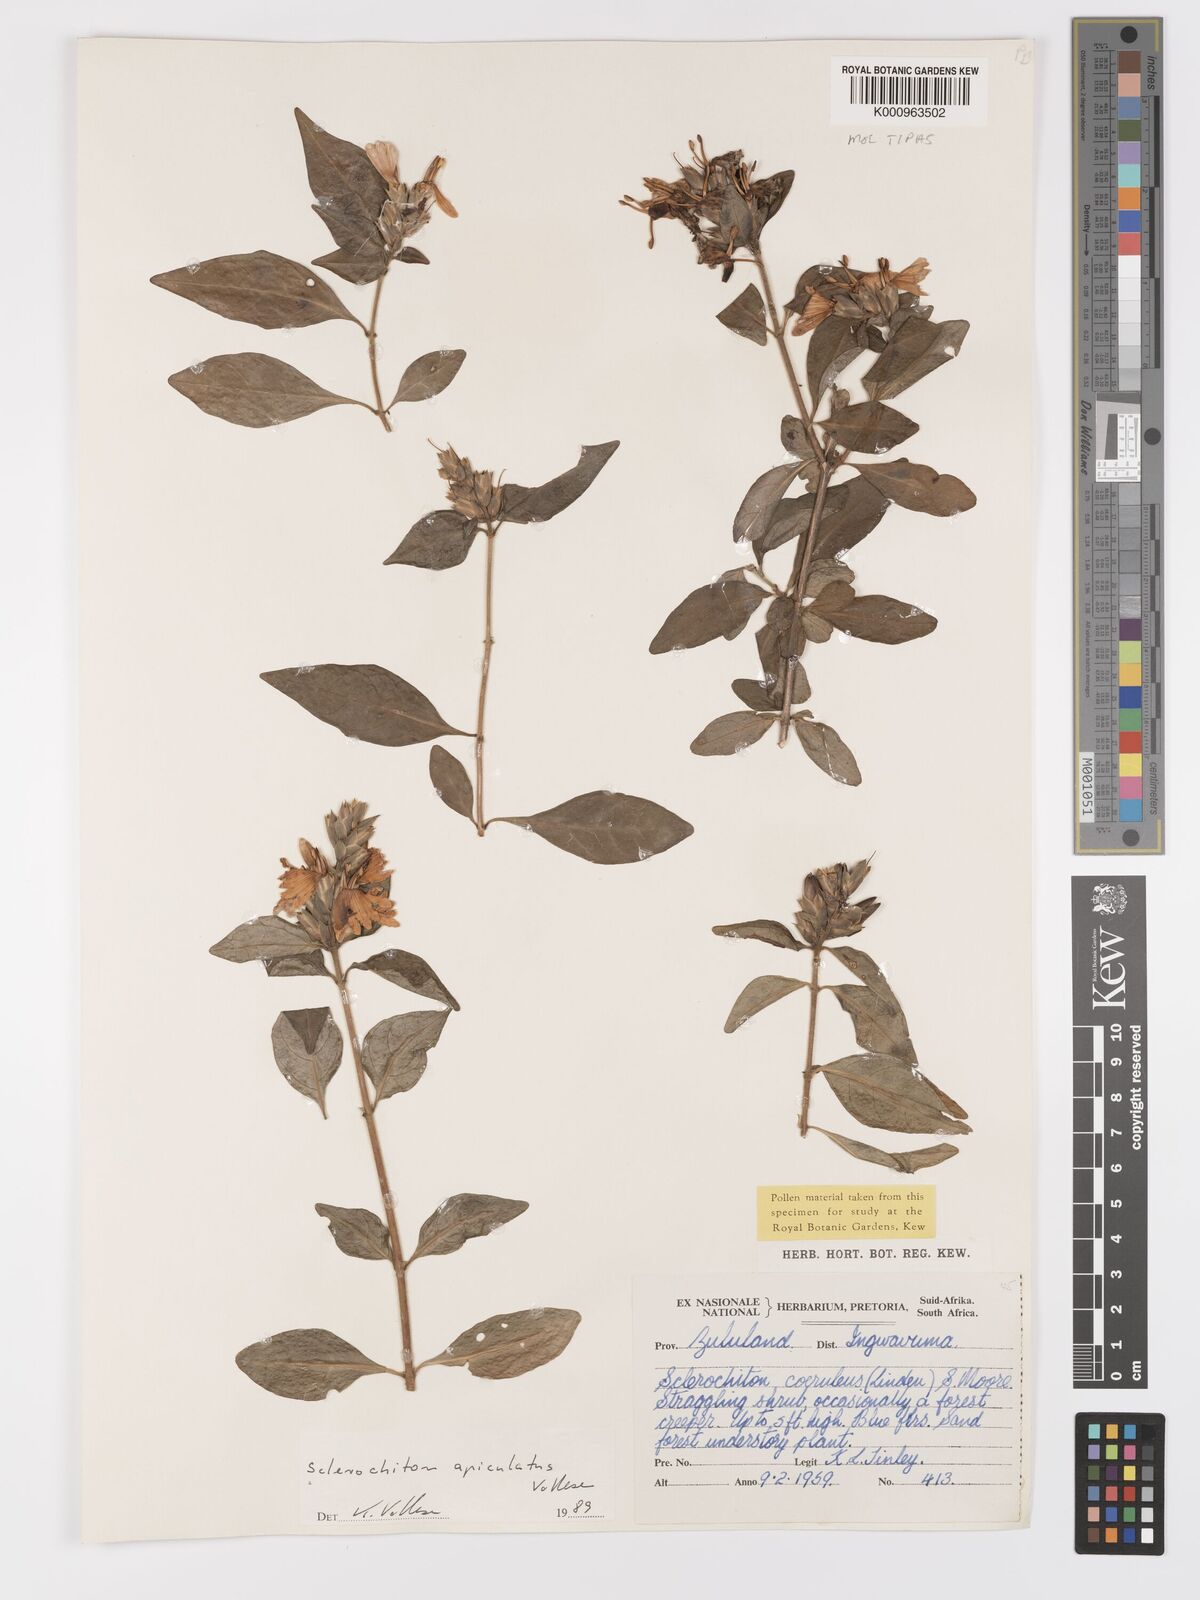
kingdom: Plantae
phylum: Tracheophyta
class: Magnoliopsida
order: Lamiales
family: Acanthaceae
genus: Sclerochiton
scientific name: Sclerochiton apiculatus
